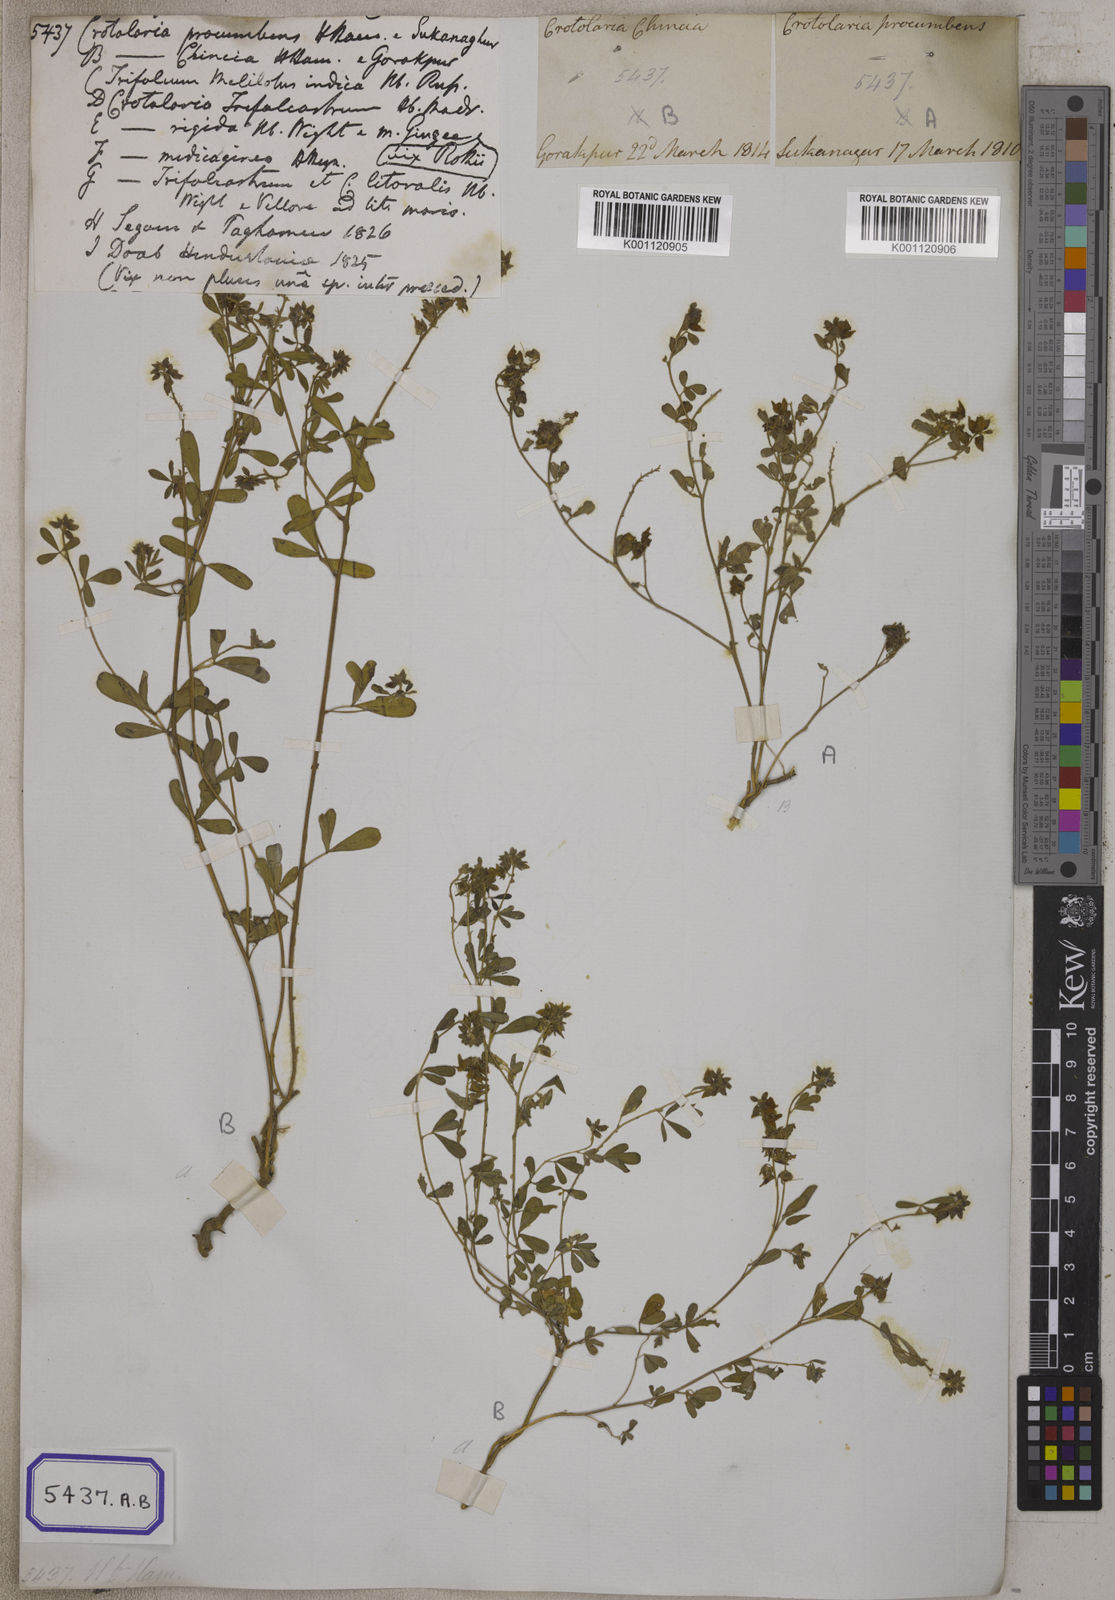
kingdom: Plantae
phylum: Tracheophyta
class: Magnoliopsida
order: Fabales
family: Fabaceae
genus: Crotalaria
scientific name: Crotalaria
